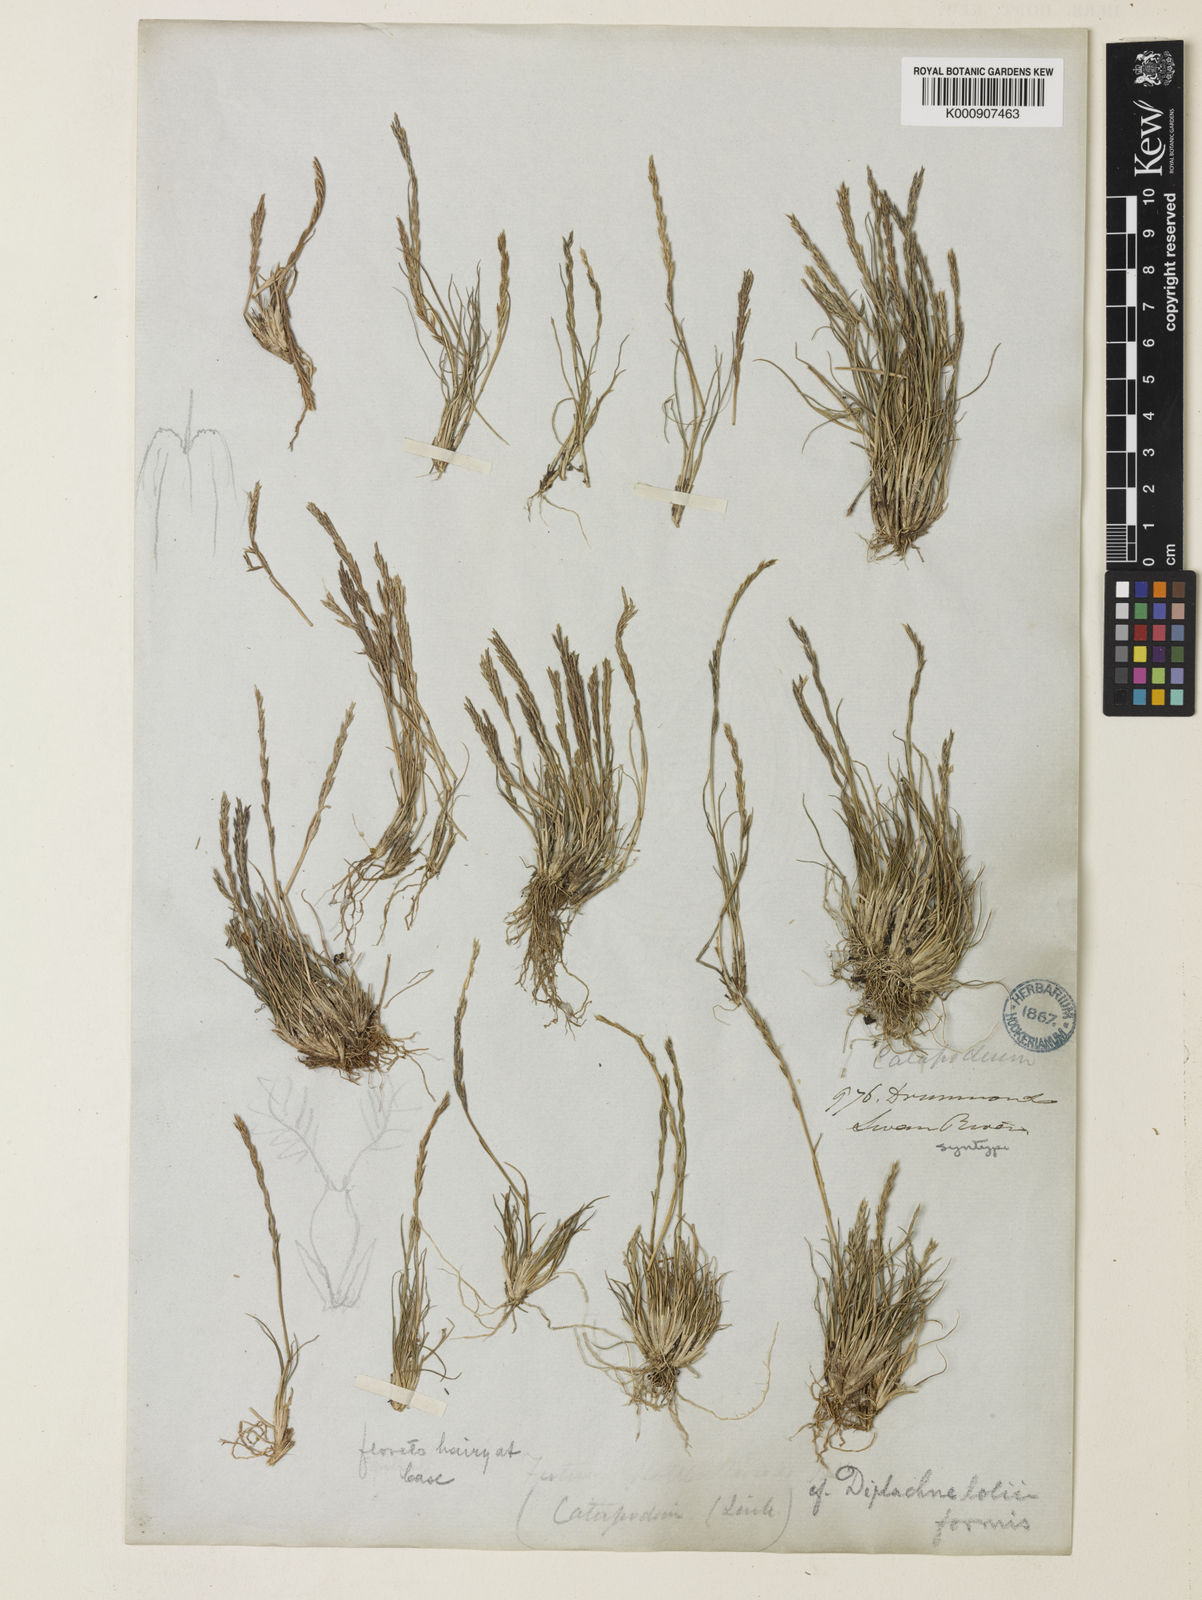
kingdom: Plantae
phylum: Tracheophyta
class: Liliopsida
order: Poales
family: Poaceae
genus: Tripogonella
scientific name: Tripogonella loliiformis
